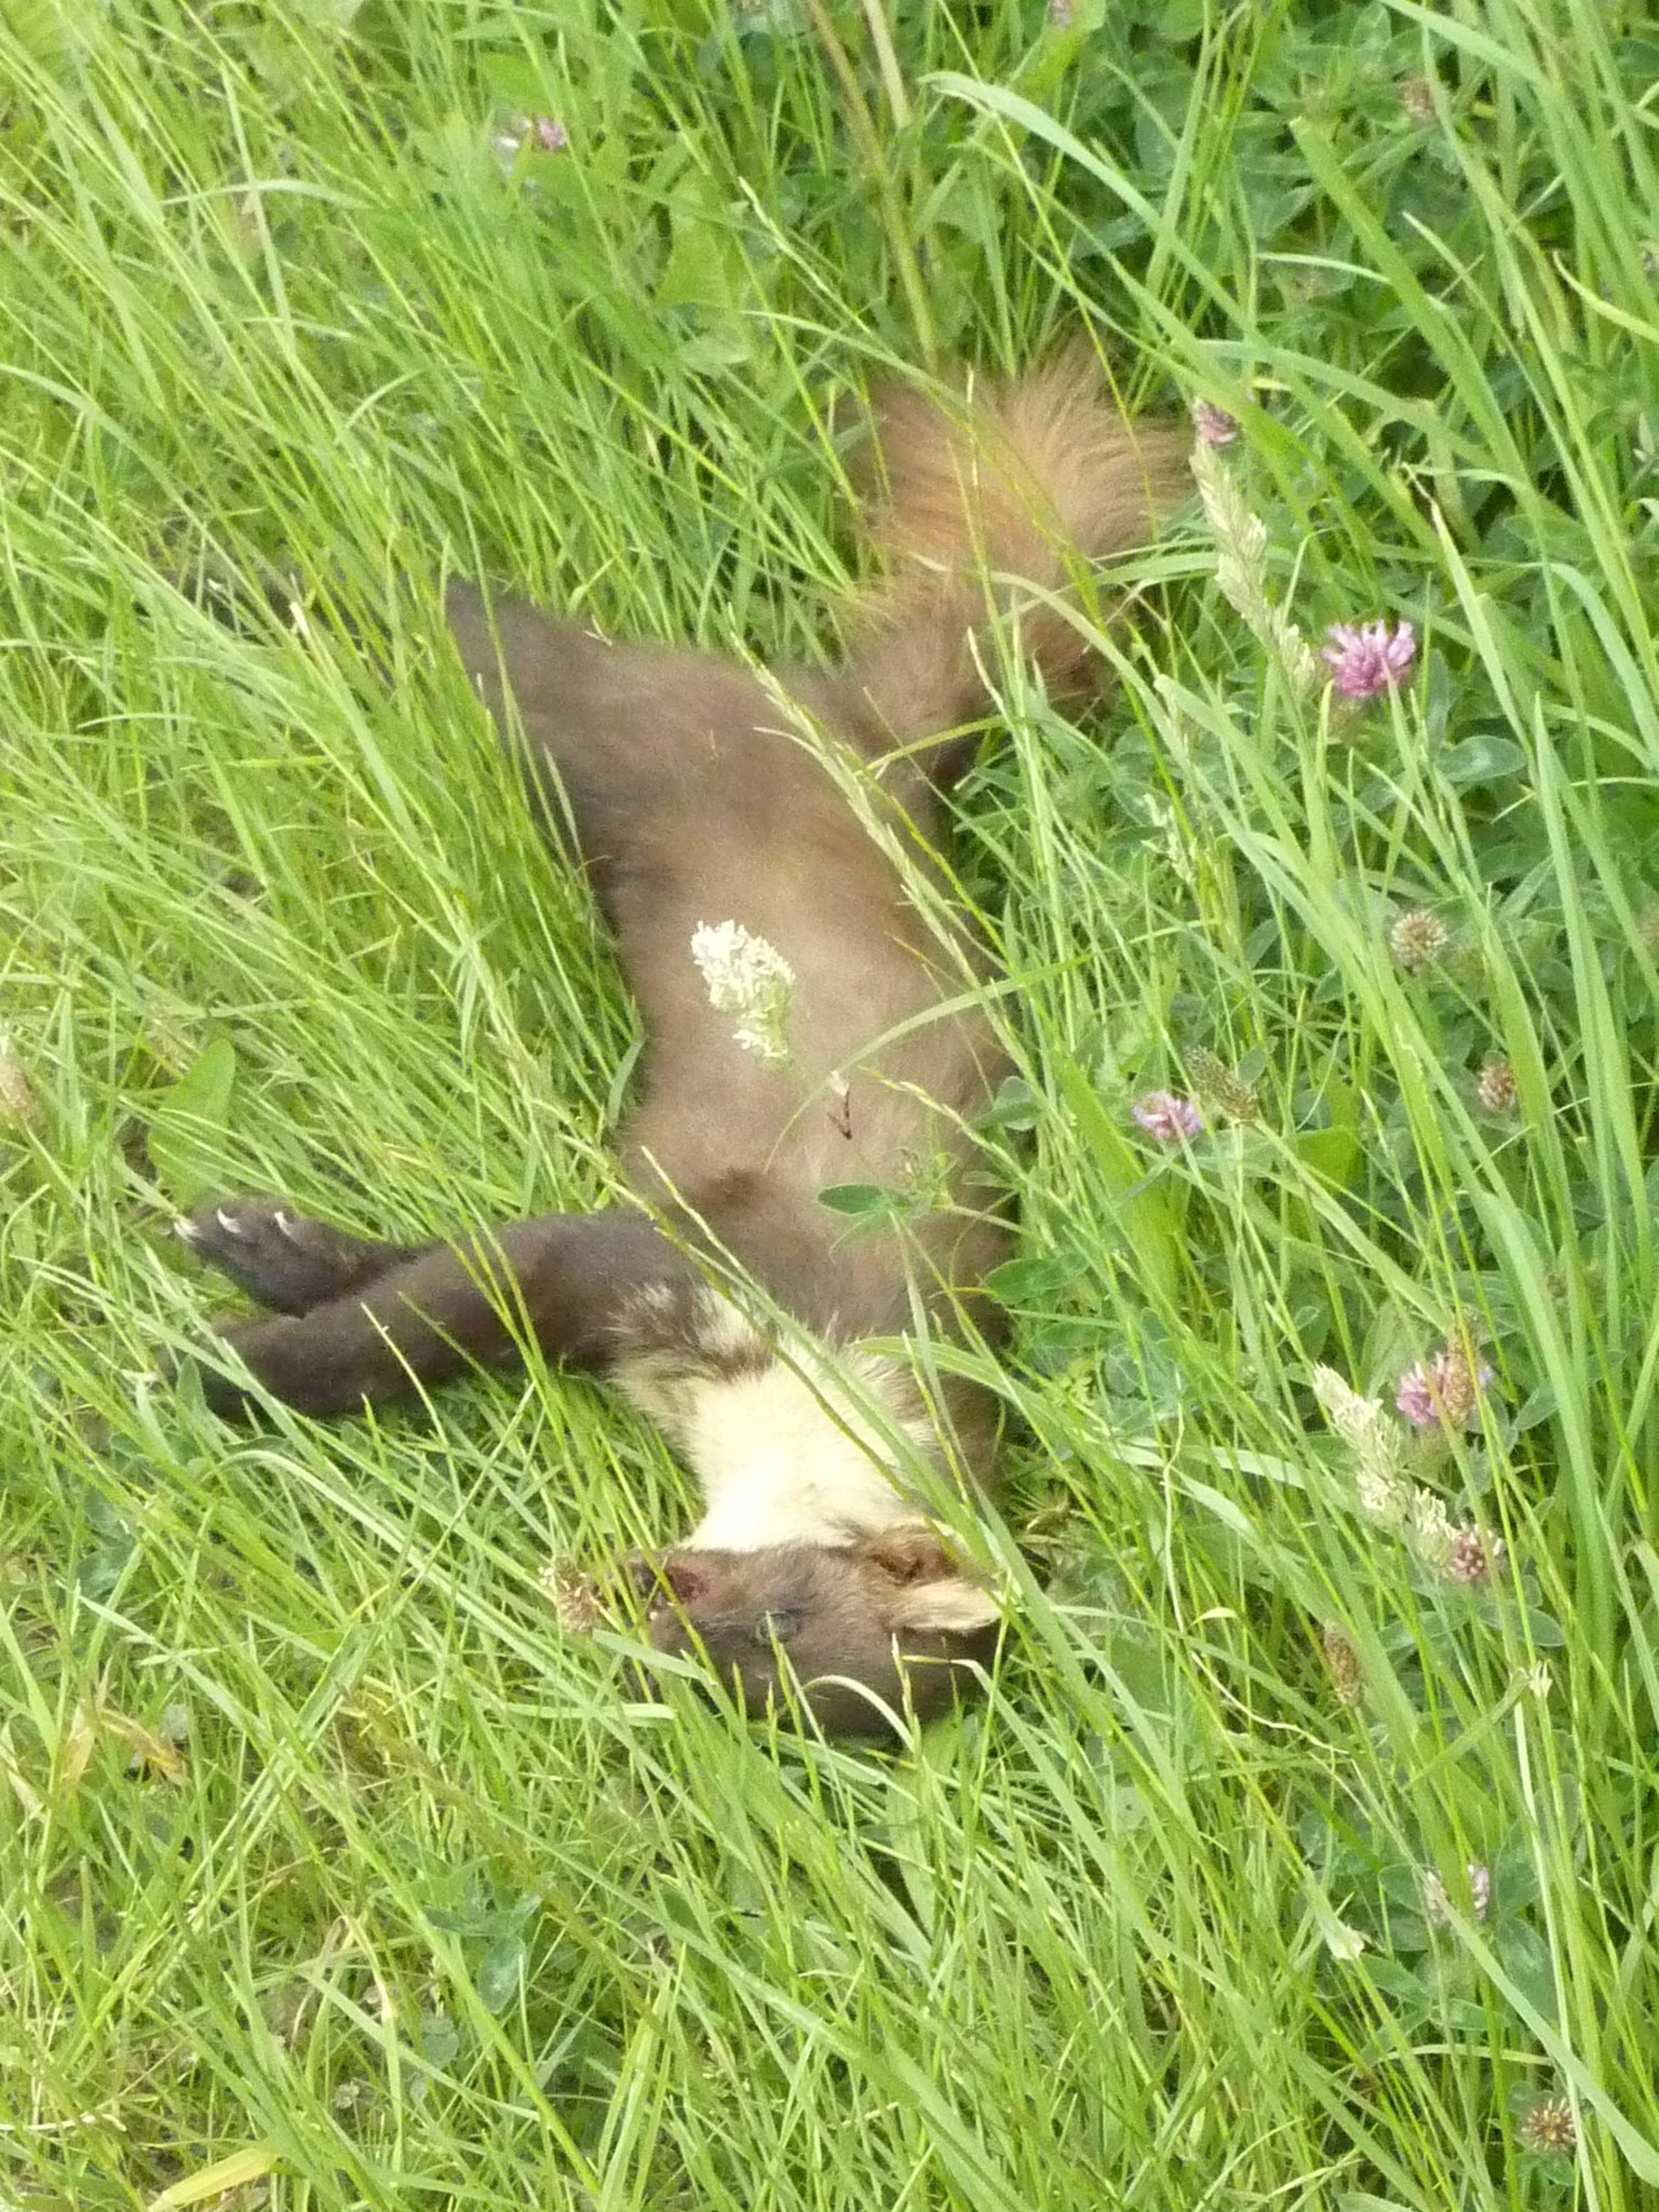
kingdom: Animalia
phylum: Chordata
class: Mammalia
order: Carnivora
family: Mustelidae
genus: Martes
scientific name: Martes martes
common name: Skovmår
